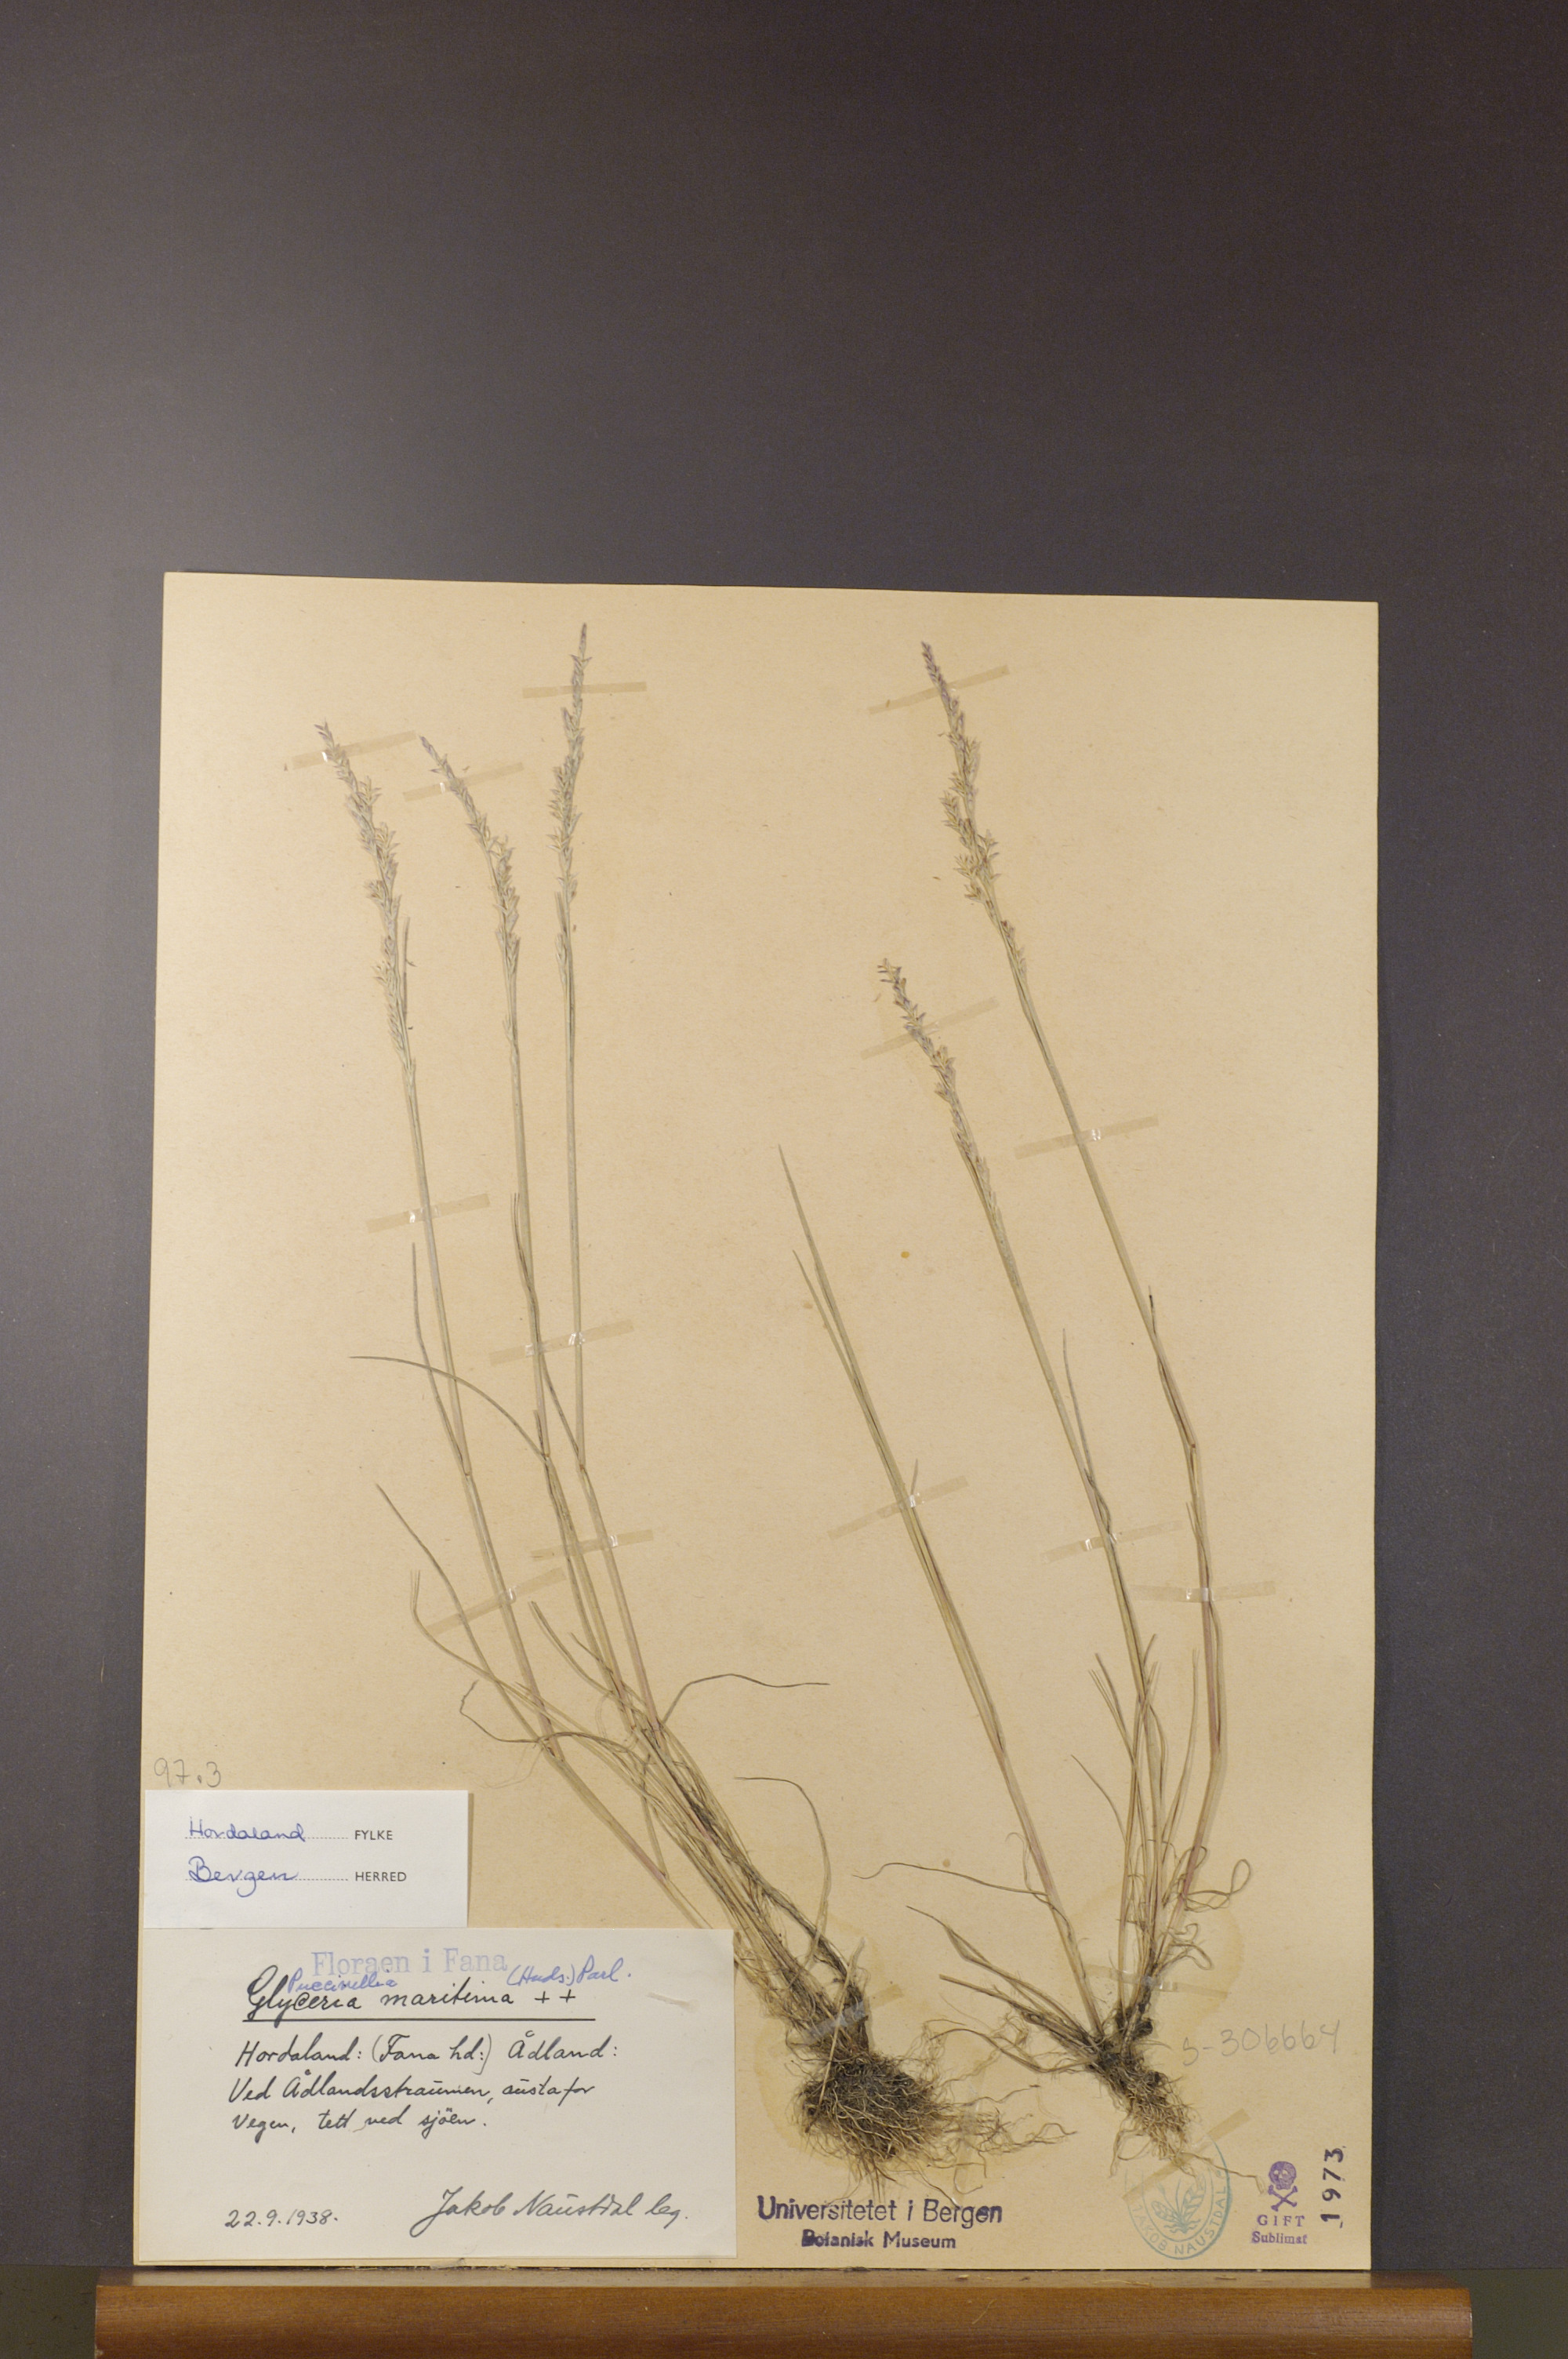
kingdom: Plantae
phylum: Tracheophyta
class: Liliopsida
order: Poales
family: Poaceae
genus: Puccinellia
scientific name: Puccinellia maritima
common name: Common saltmarsh grass
